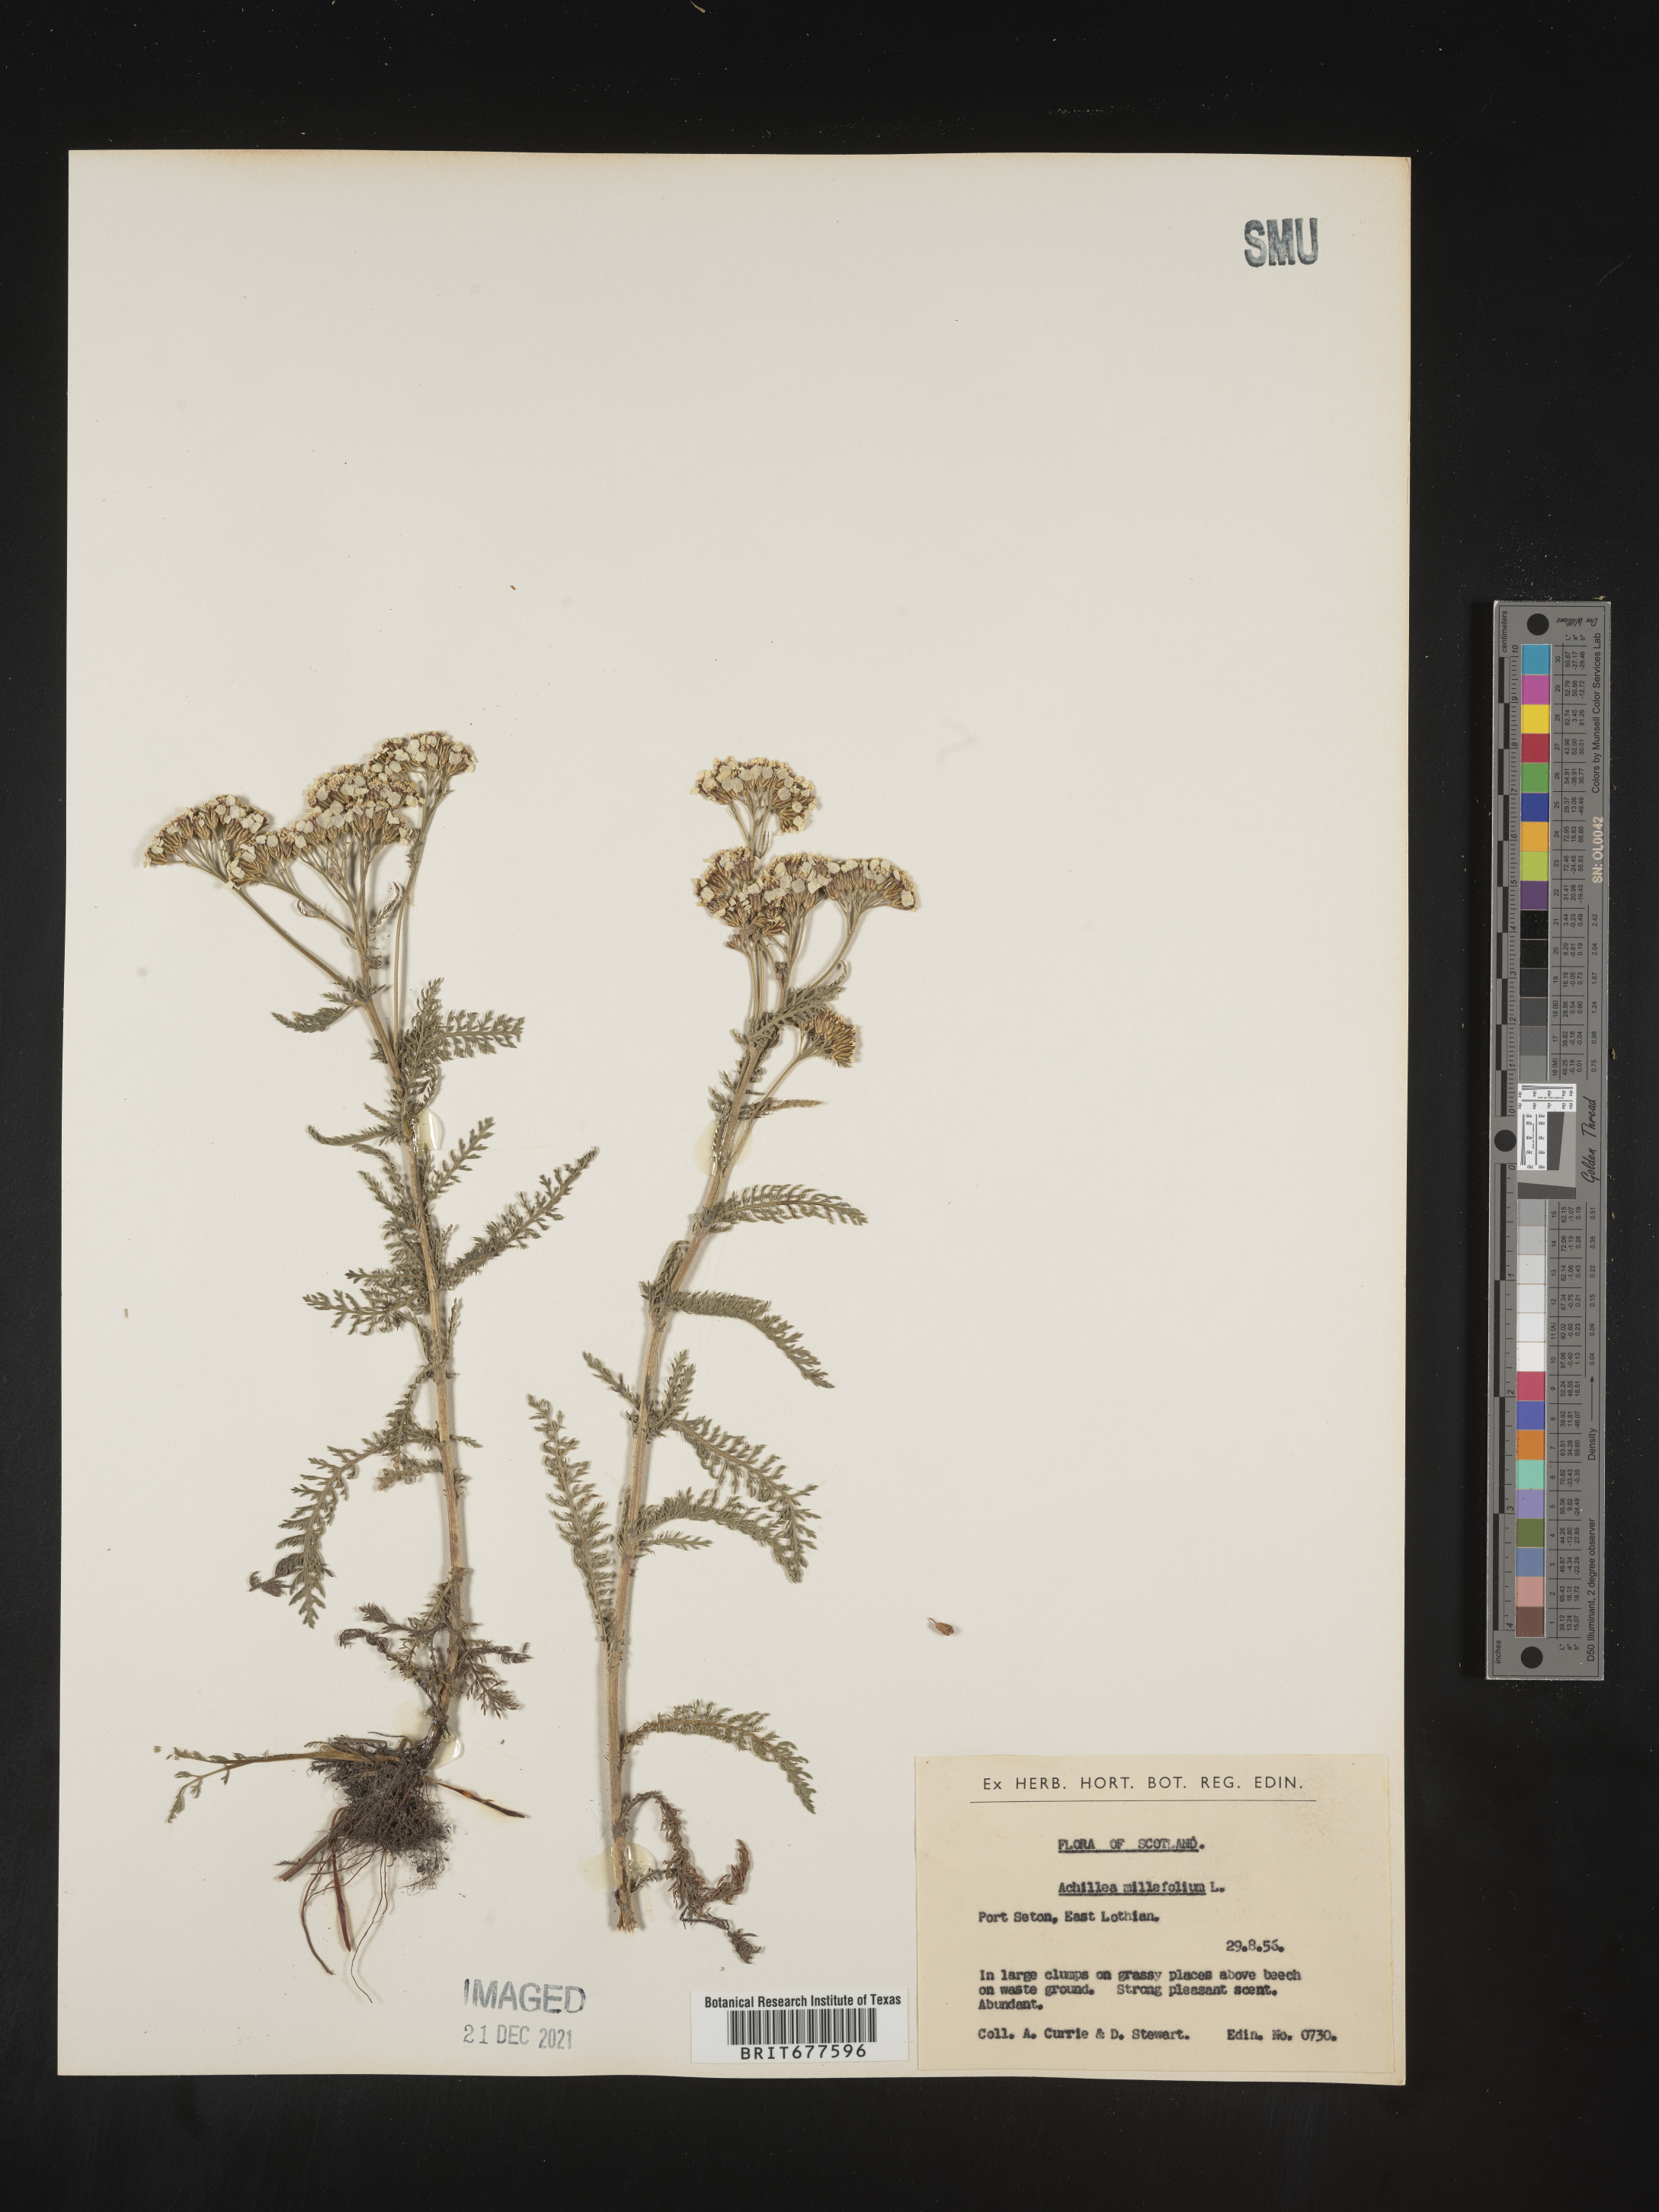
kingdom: Plantae
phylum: Tracheophyta
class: Magnoliopsida
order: Asterales
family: Asteraceae
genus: Achillea
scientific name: Achillea millefolium
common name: Yarrow
